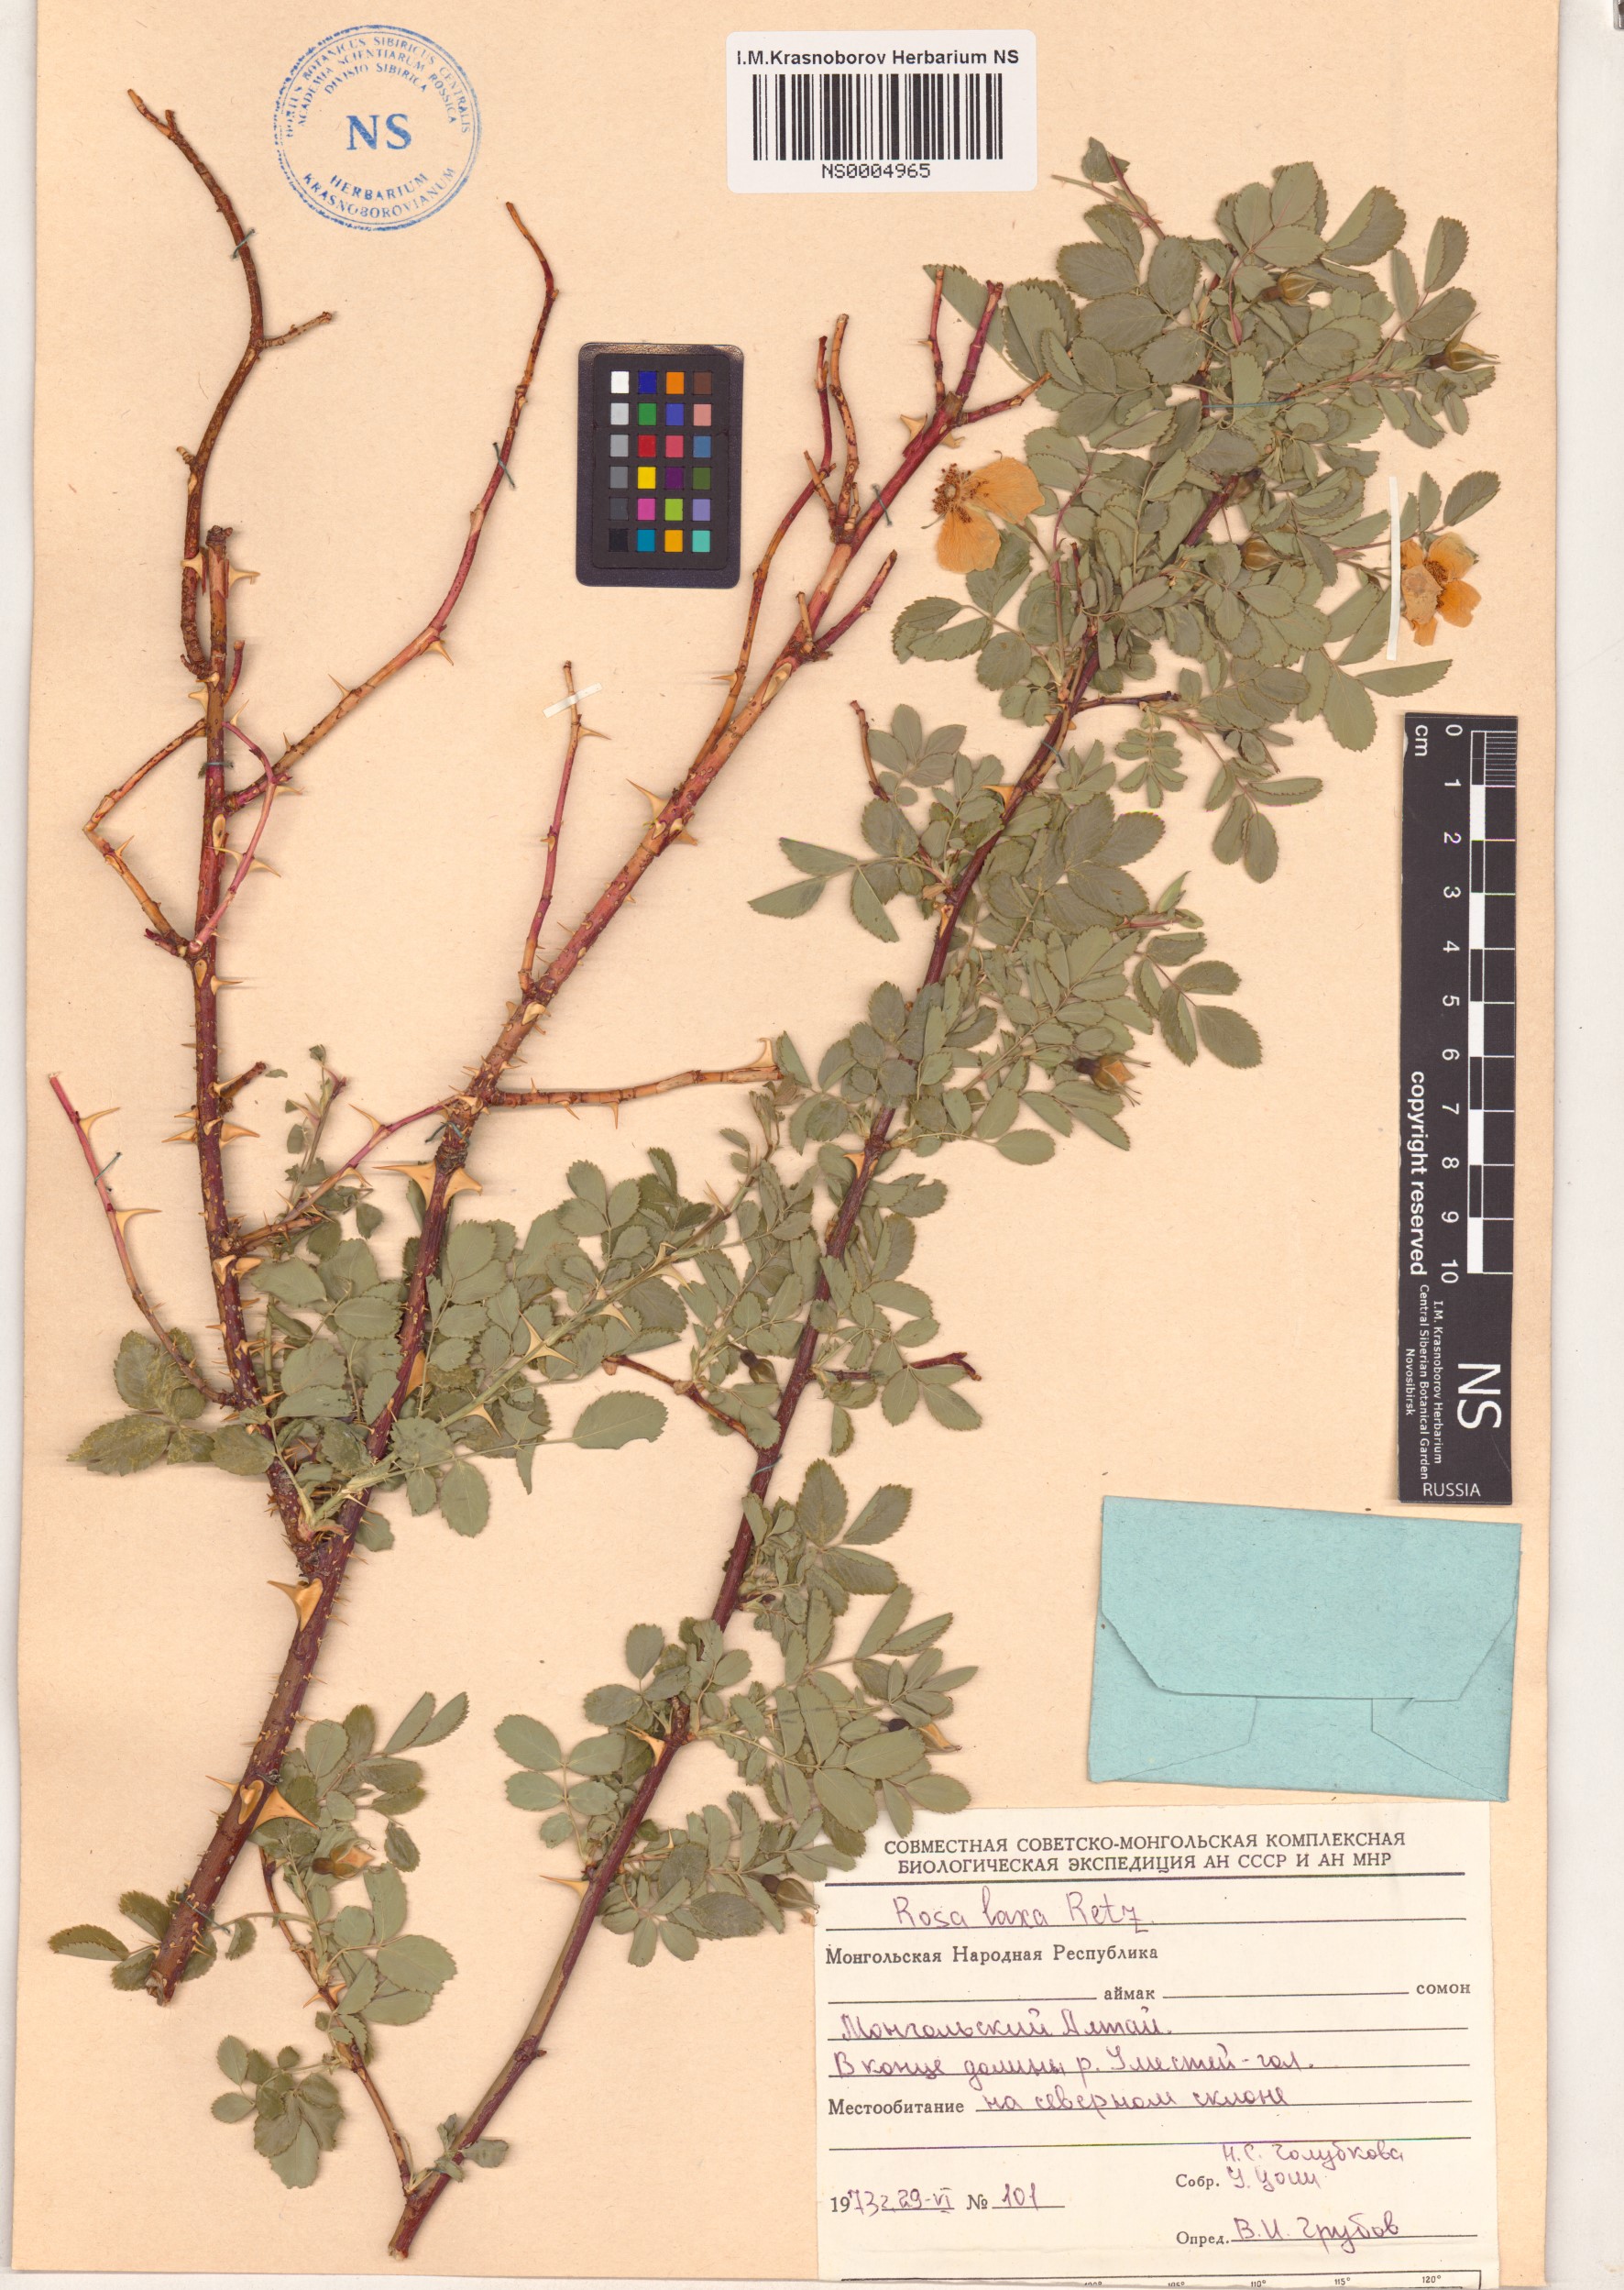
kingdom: Plantae
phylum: Tracheophyta
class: Magnoliopsida
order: Rosales
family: Rosaceae
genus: Rosa
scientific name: Rosa laxa
